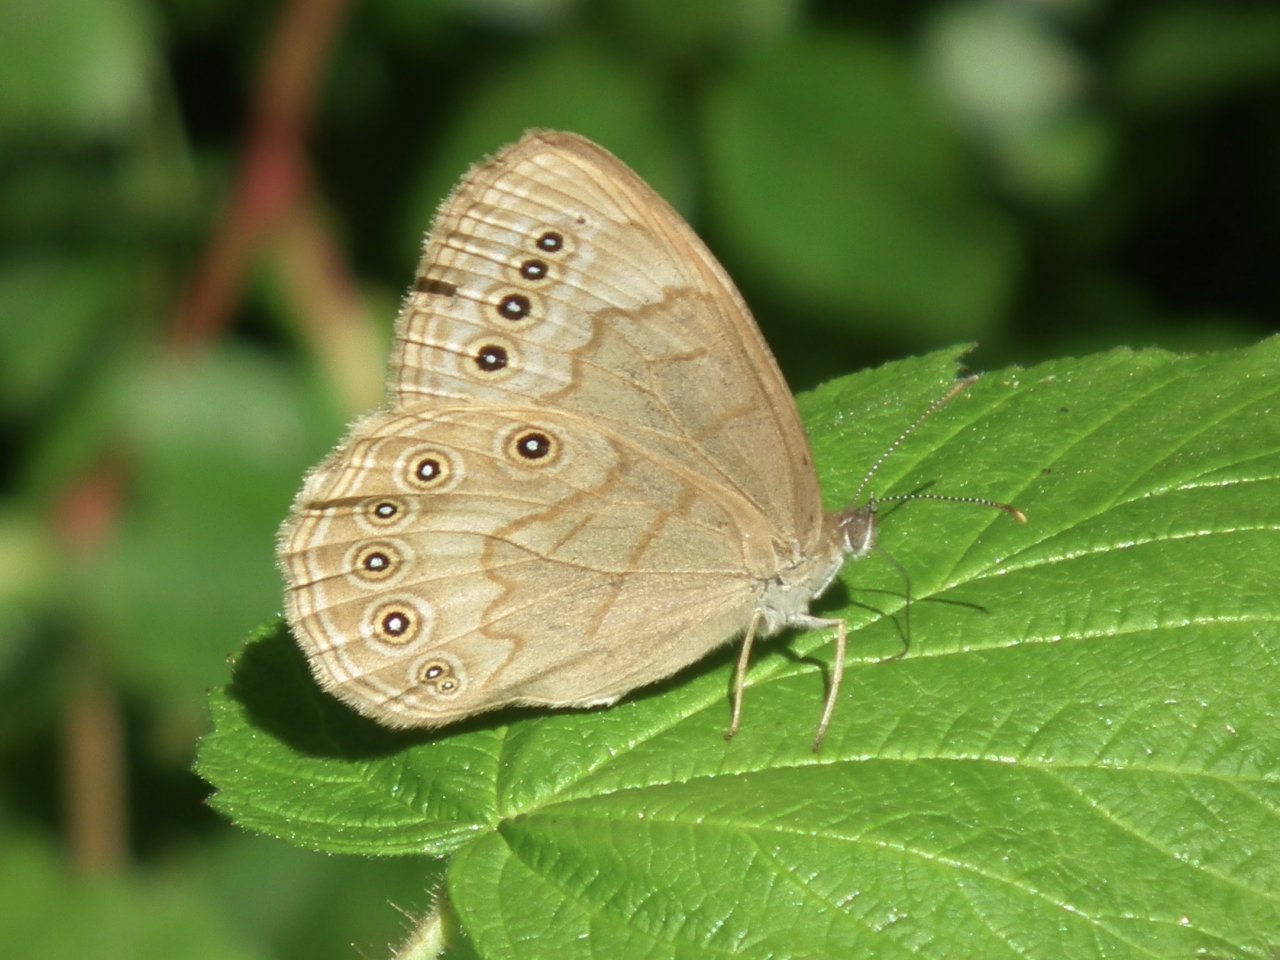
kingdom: Animalia
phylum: Arthropoda
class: Insecta
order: Lepidoptera
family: Nymphalidae
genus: Lethe
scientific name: Lethe eurydice
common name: Eyed Brown
